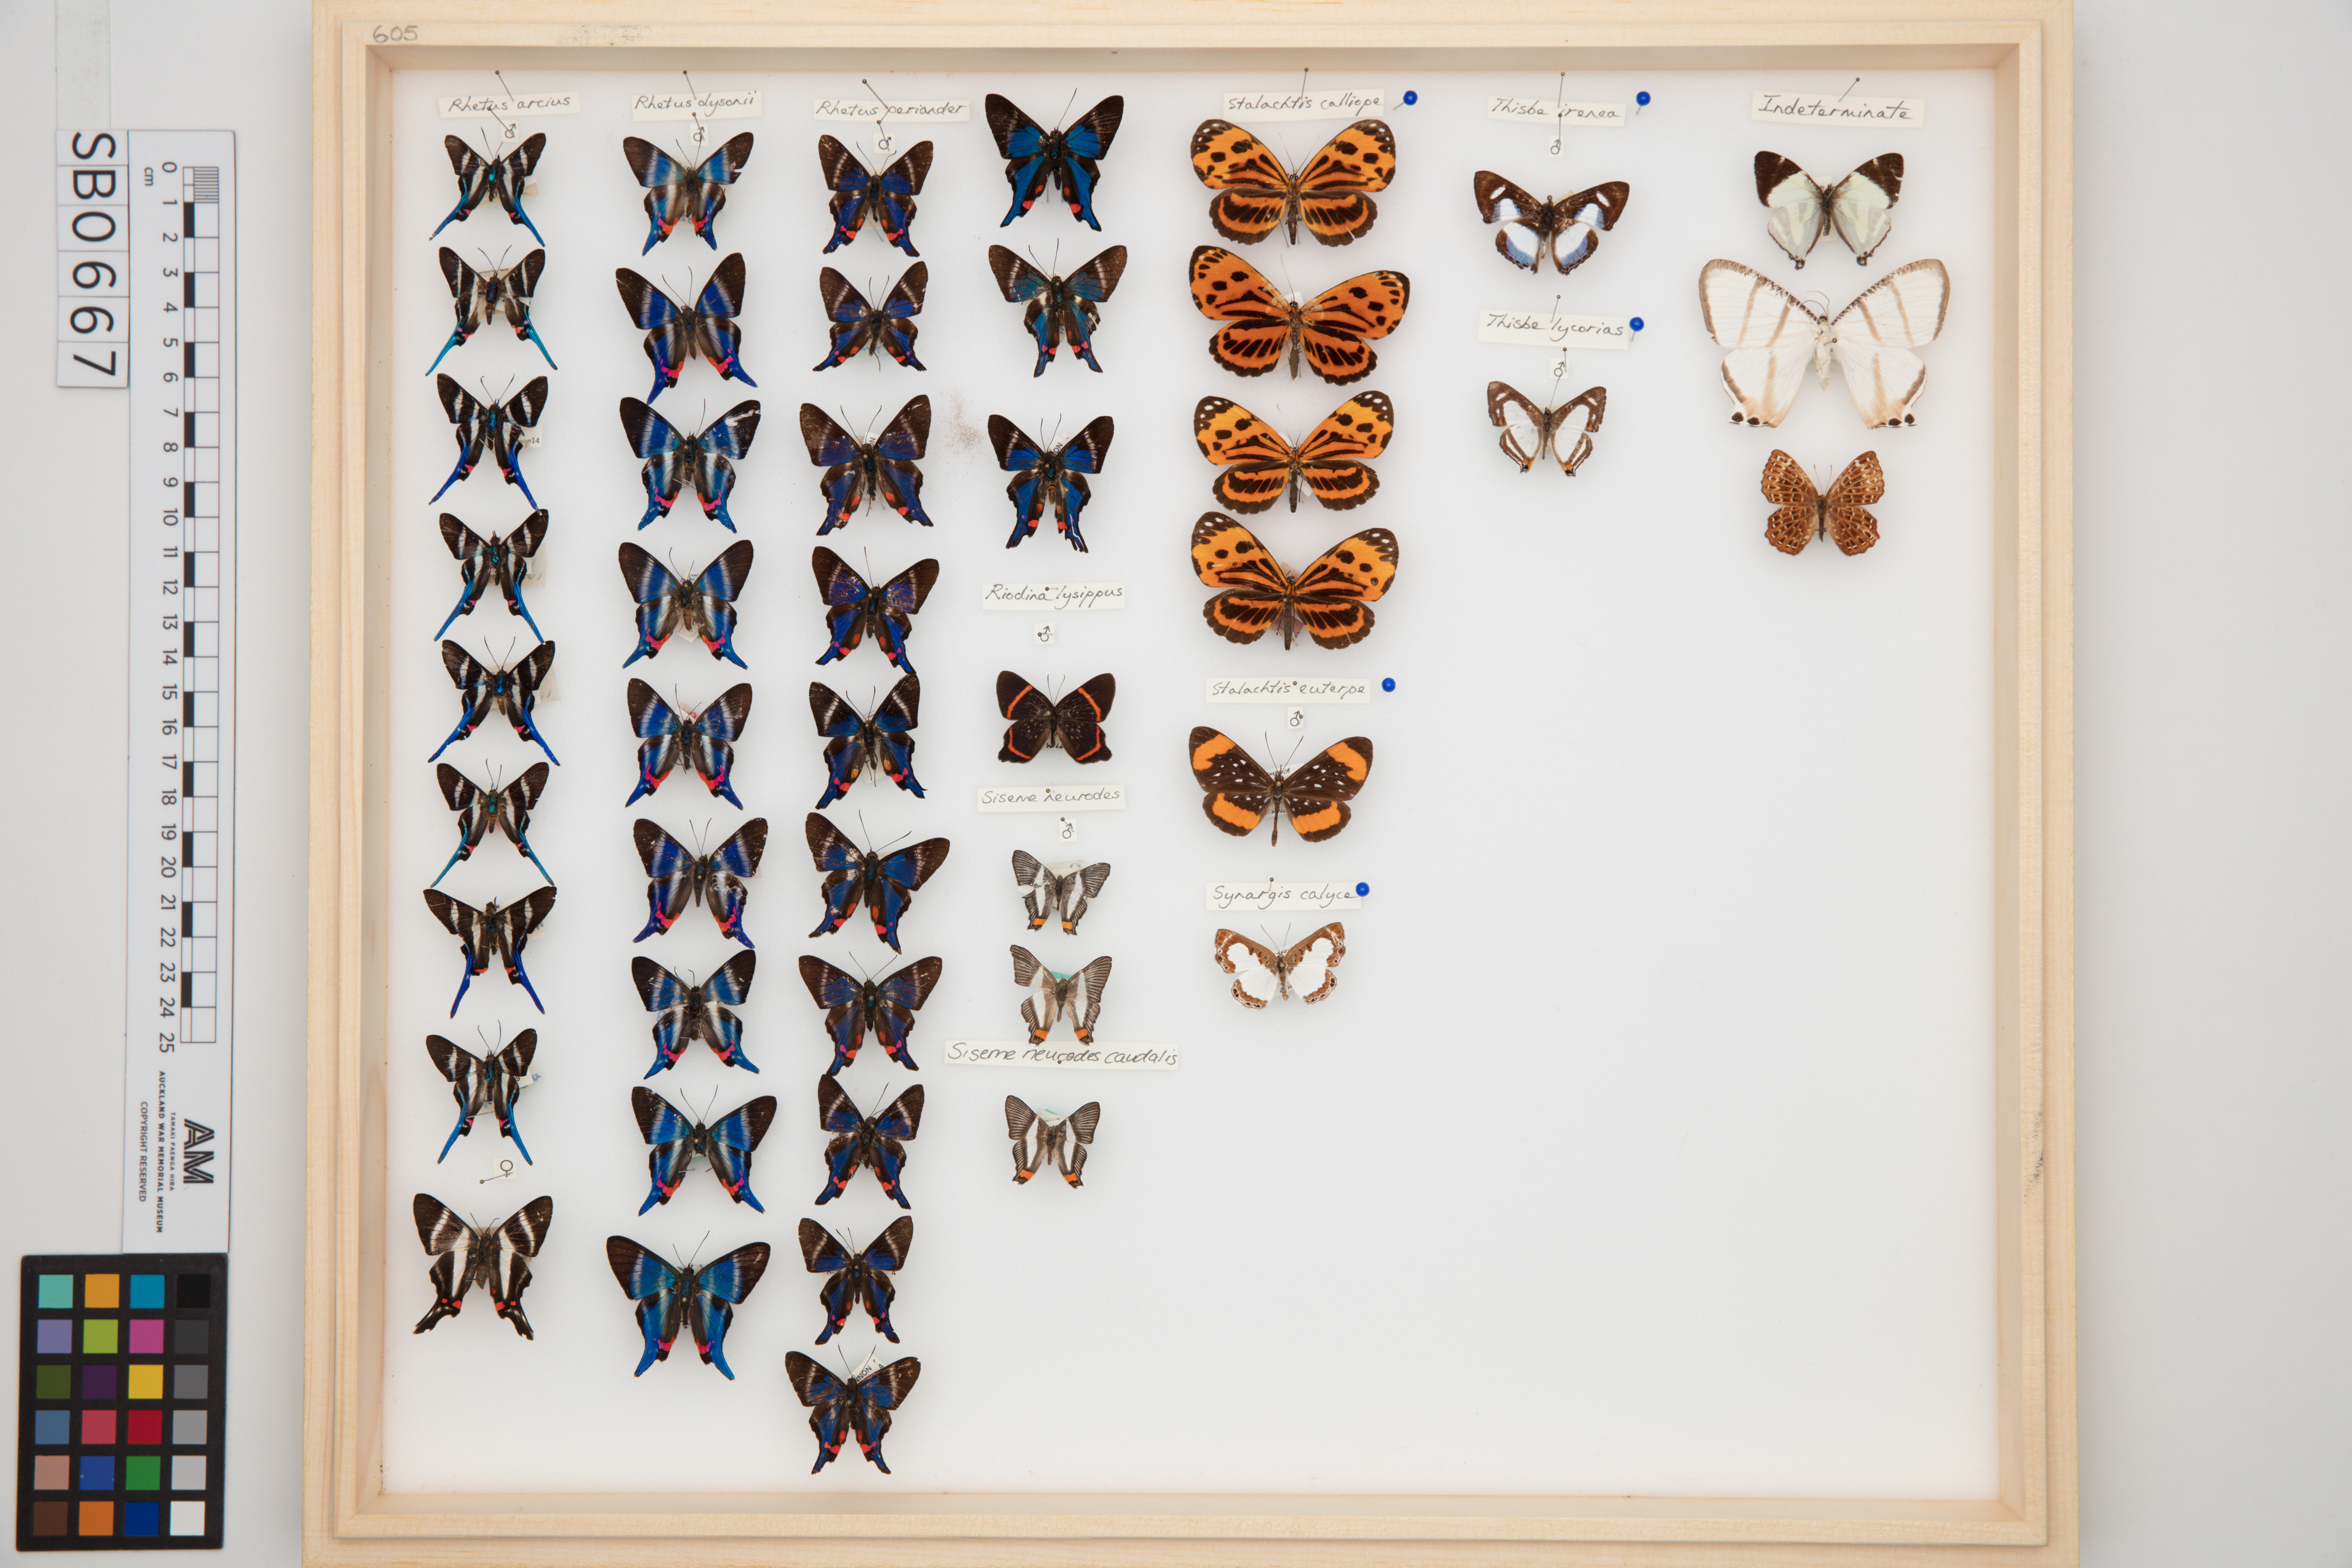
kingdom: Animalia
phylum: Arthropoda
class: Insecta
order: Lepidoptera
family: Riodinidae
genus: Rhetus
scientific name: Rhetus periander
